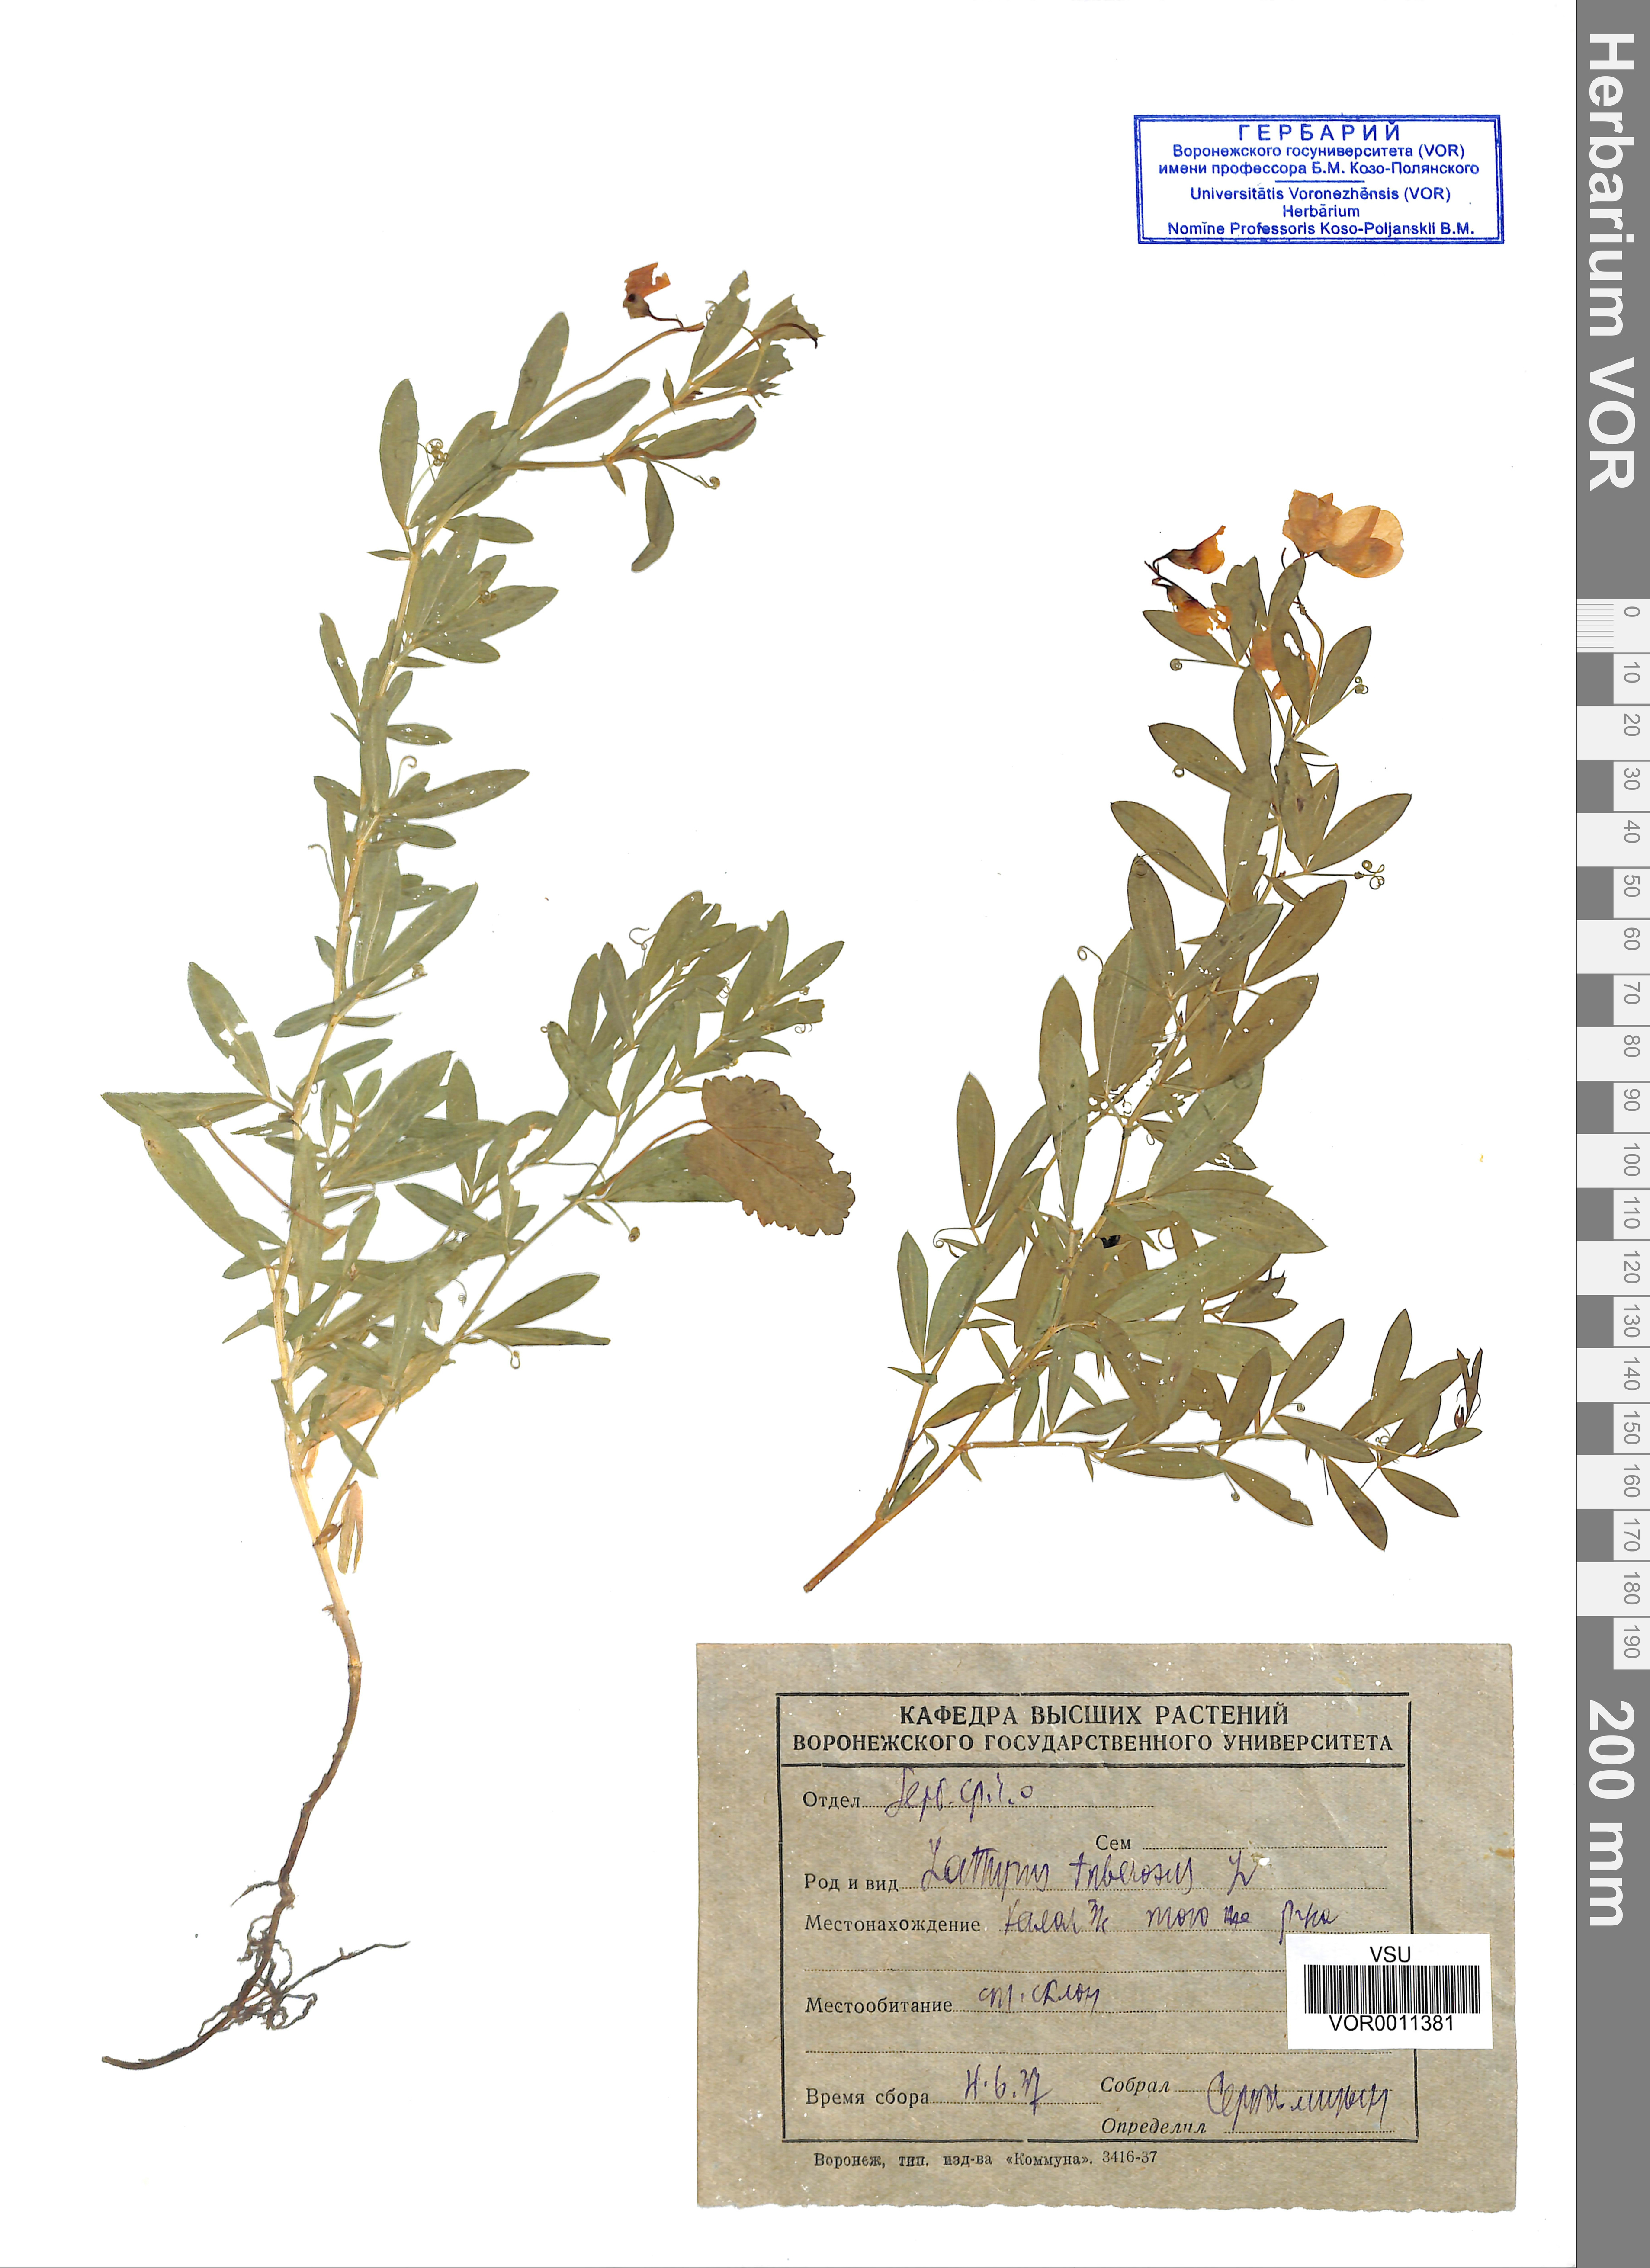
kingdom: Plantae
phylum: Tracheophyta
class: Magnoliopsida
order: Fabales
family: Fabaceae
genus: Lathyrus
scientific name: Lathyrus tuberosus
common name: Tuberous pea
